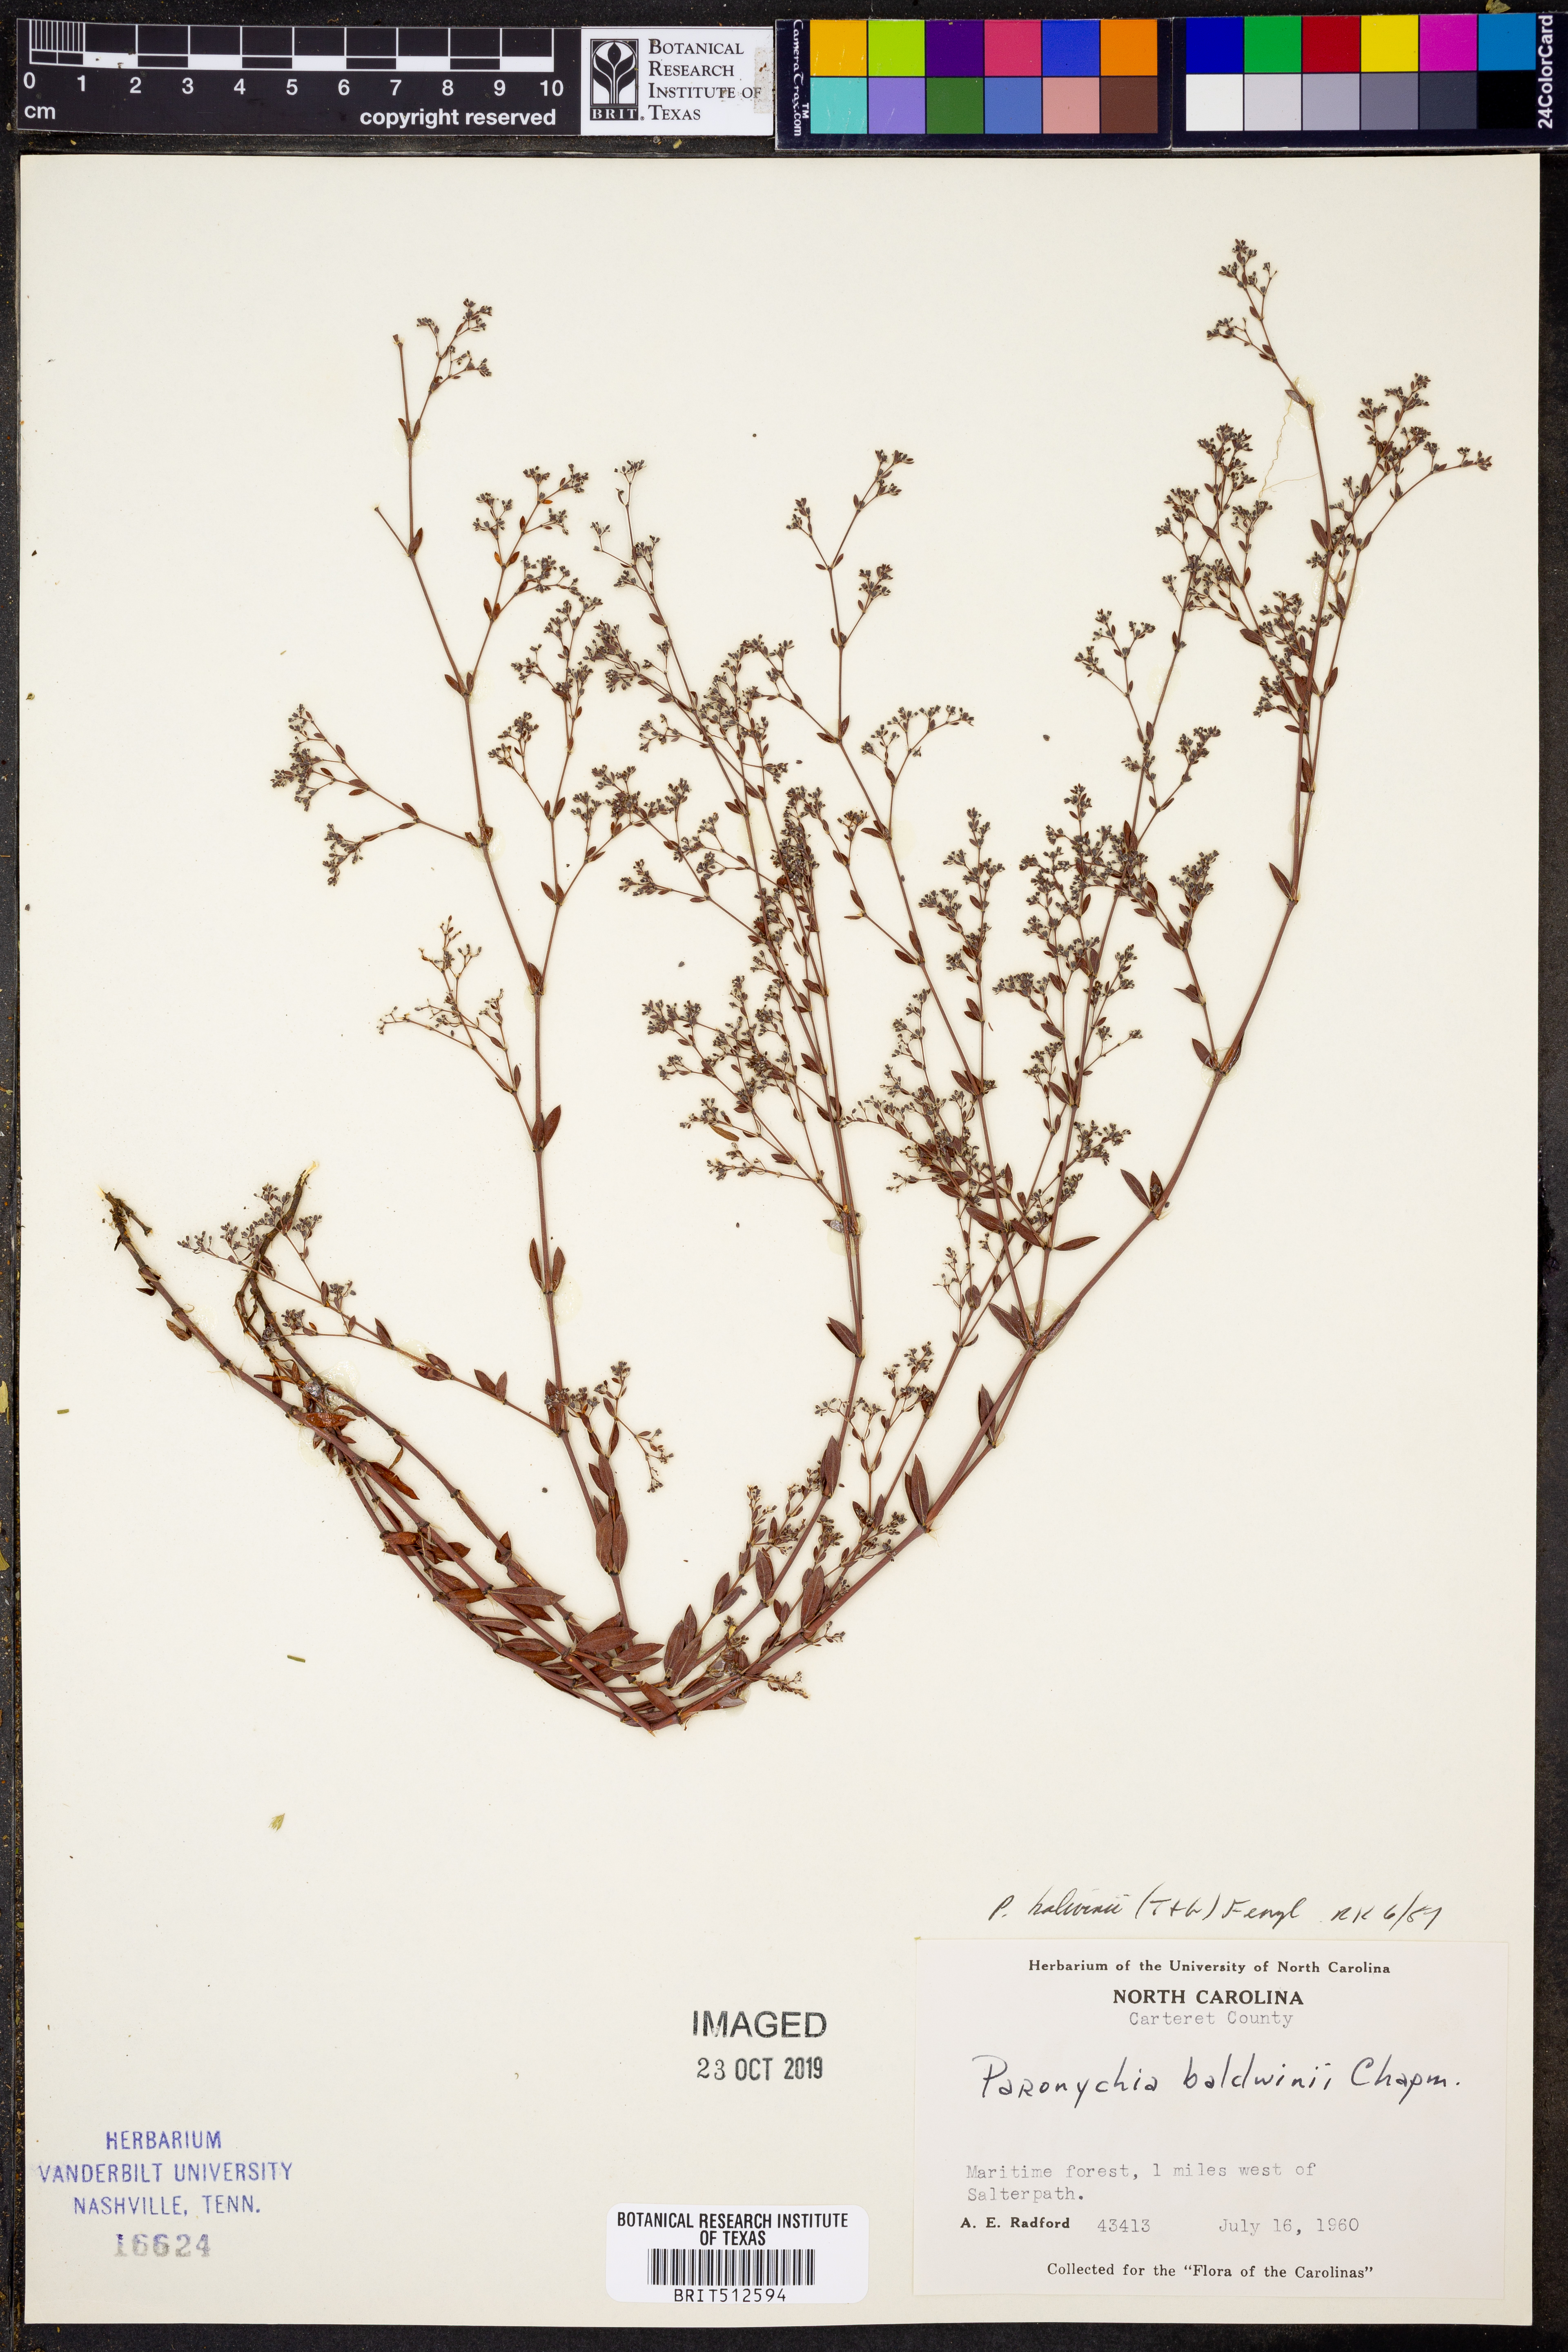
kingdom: Plantae
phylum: Tracheophyta
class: Magnoliopsida
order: Caryophyllales
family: Caryophyllaceae
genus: Paronychia
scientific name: Paronychia baldwinii
